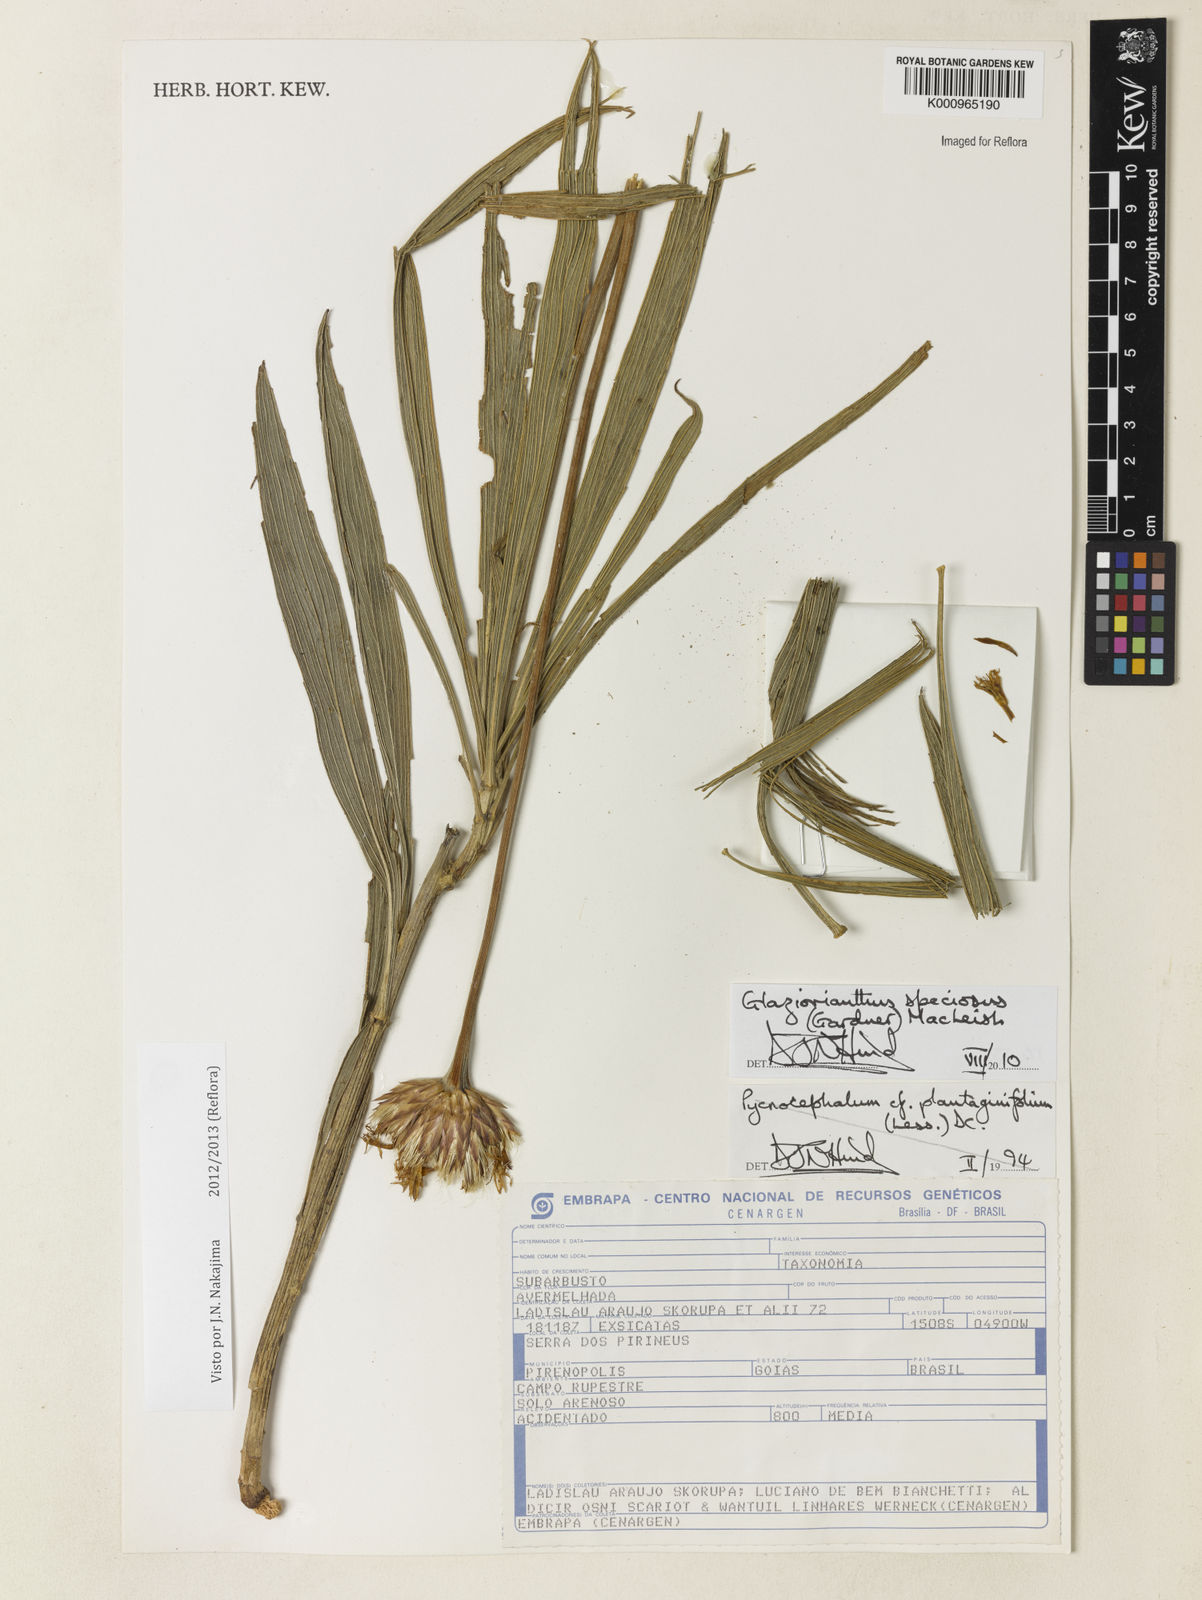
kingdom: Plantae
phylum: Tracheophyta
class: Magnoliopsida
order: Asterales
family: Asteraceae
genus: Chresta
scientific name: Chresta speciosa
